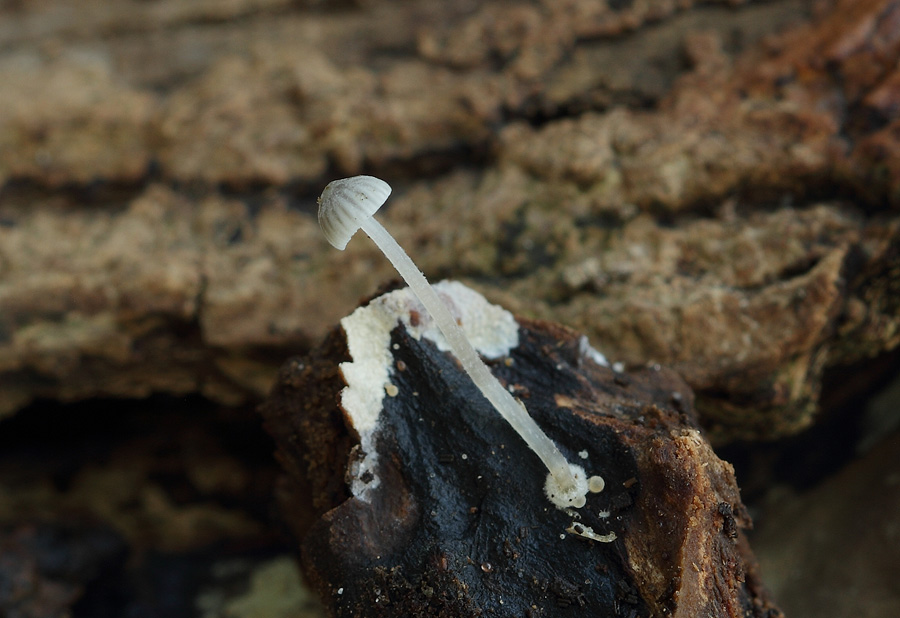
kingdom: Fungi
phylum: Basidiomycota
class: Agaricomycetes
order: Agaricales
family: Mycenaceae
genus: Mycena
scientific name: Mycena clavularis
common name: dunskivet huesvamp
